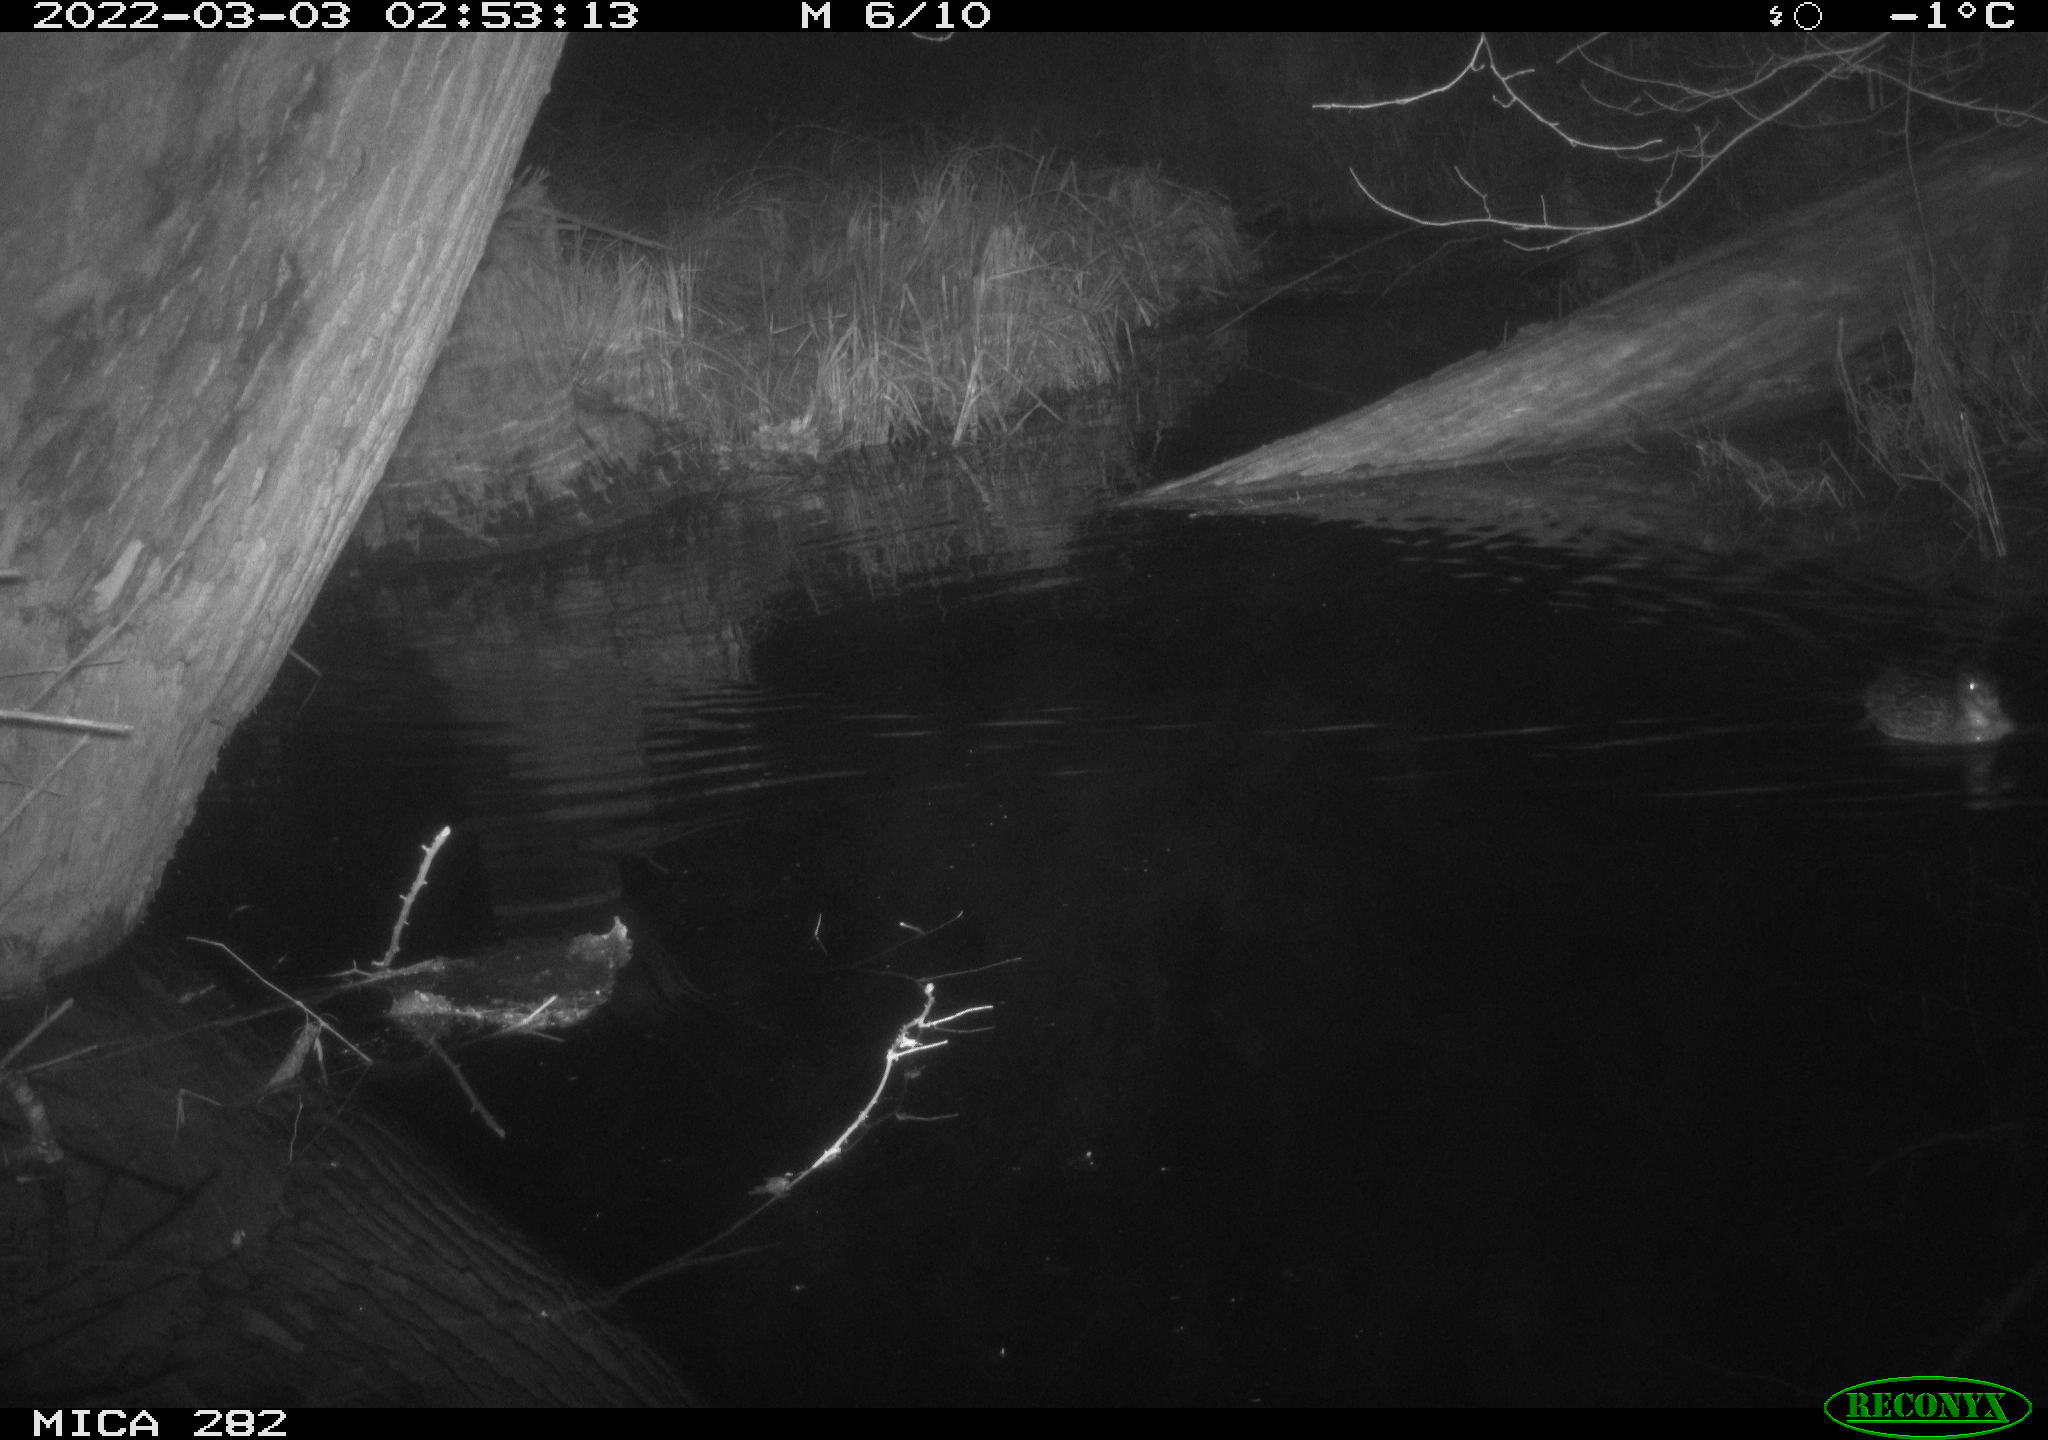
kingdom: Animalia
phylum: Chordata
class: Aves
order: Anseriformes
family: Anatidae
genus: Anas
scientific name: Anas platyrhynchos
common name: Mallard
